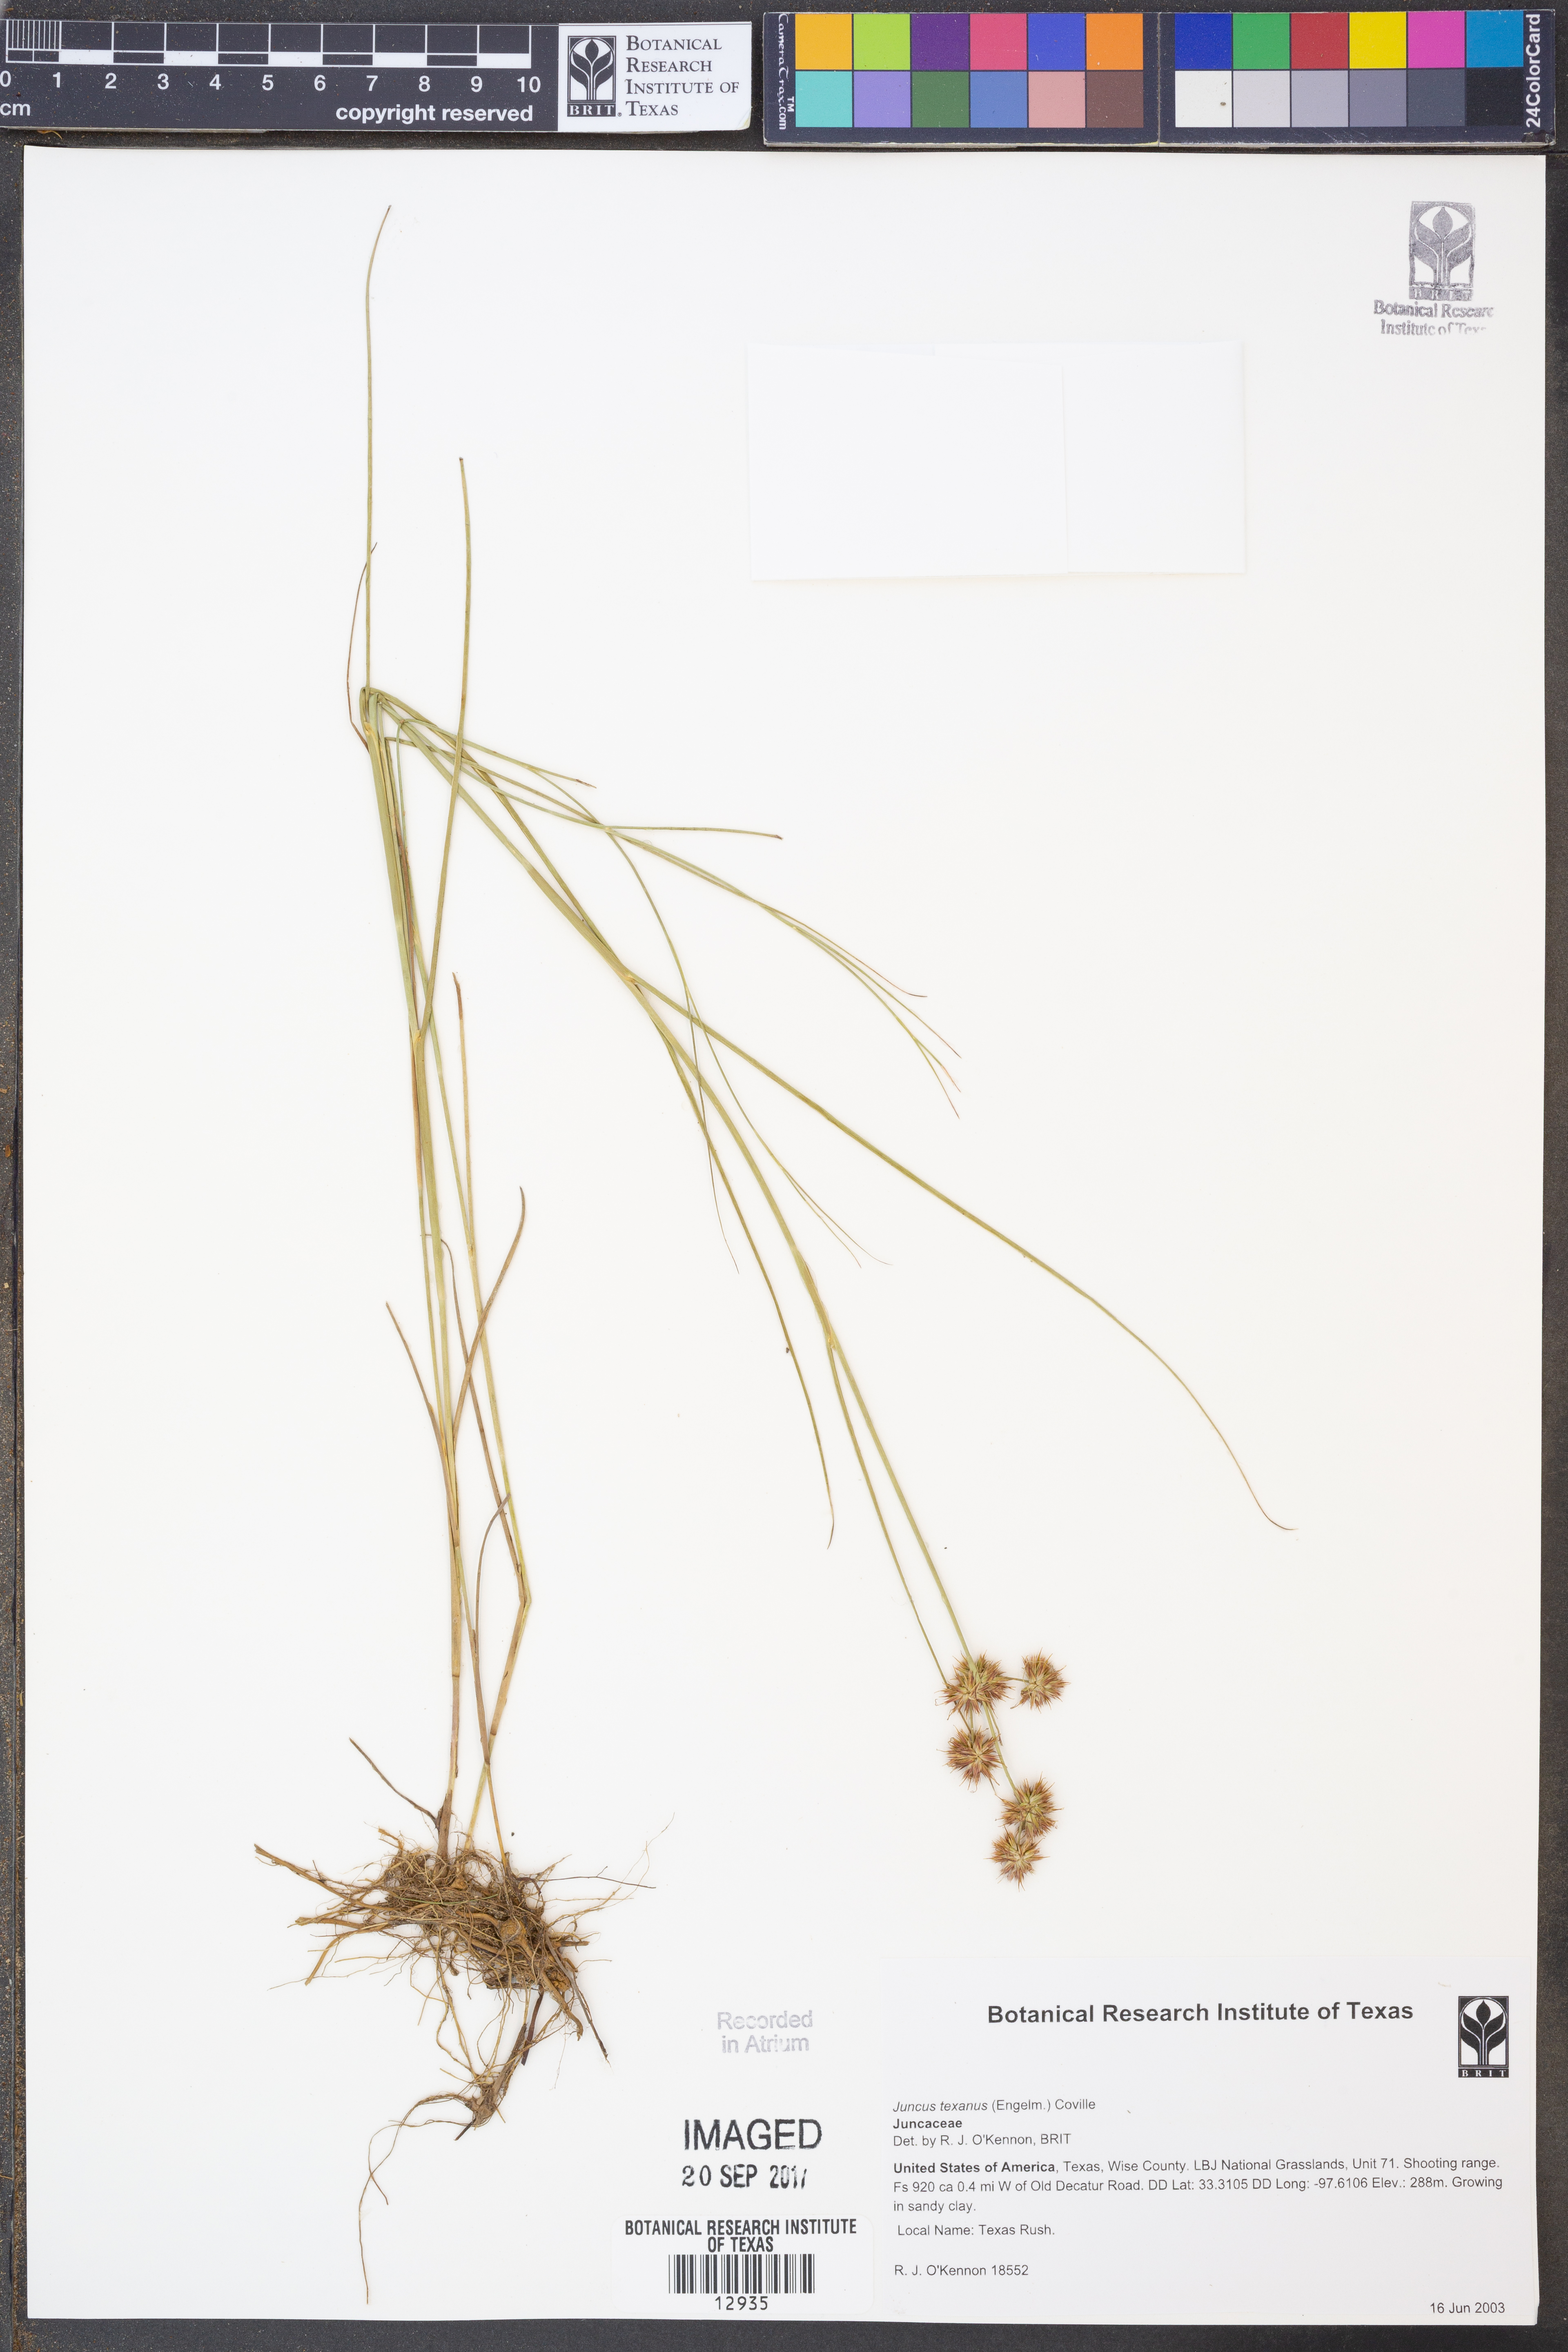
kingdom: Plantae
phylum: Tracheophyta
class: Liliopsida
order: Poales
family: Juncaceae
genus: Juncus
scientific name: Juncus texanus
